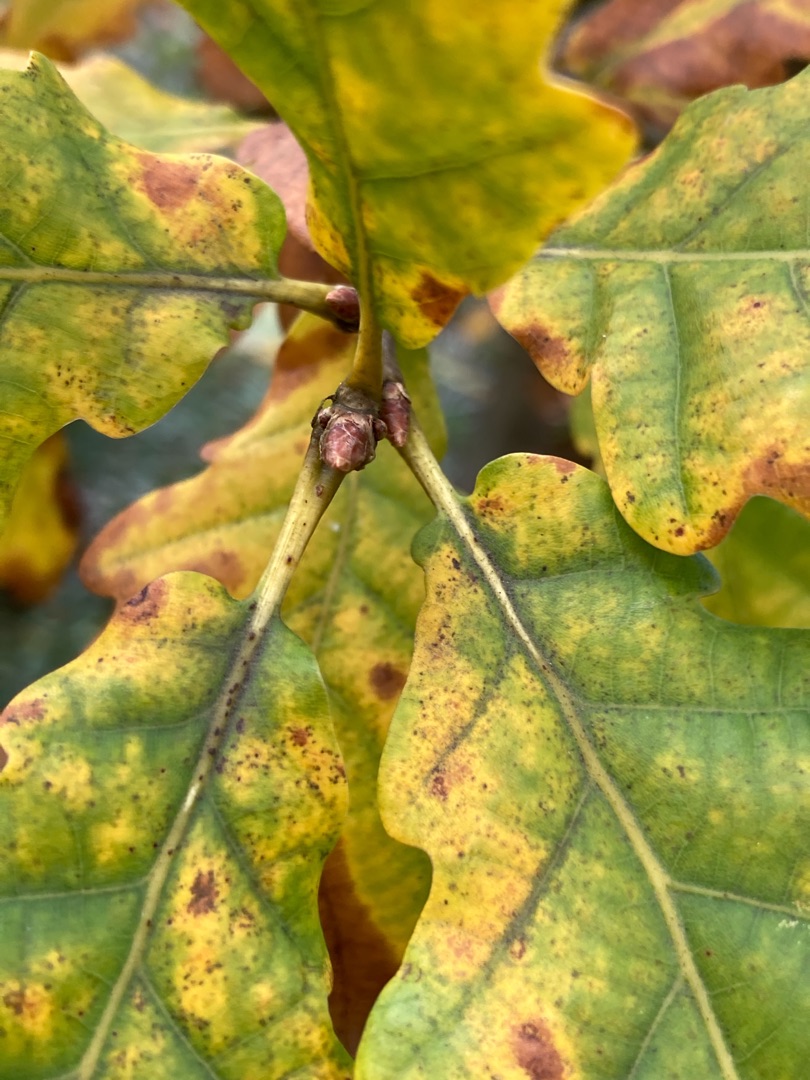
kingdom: Plantae
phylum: Tracheophyta
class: Magnoliopsida
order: Fagales
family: Fagaceae
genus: Quercus
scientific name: Quercus petraea
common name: Vinter-eg
